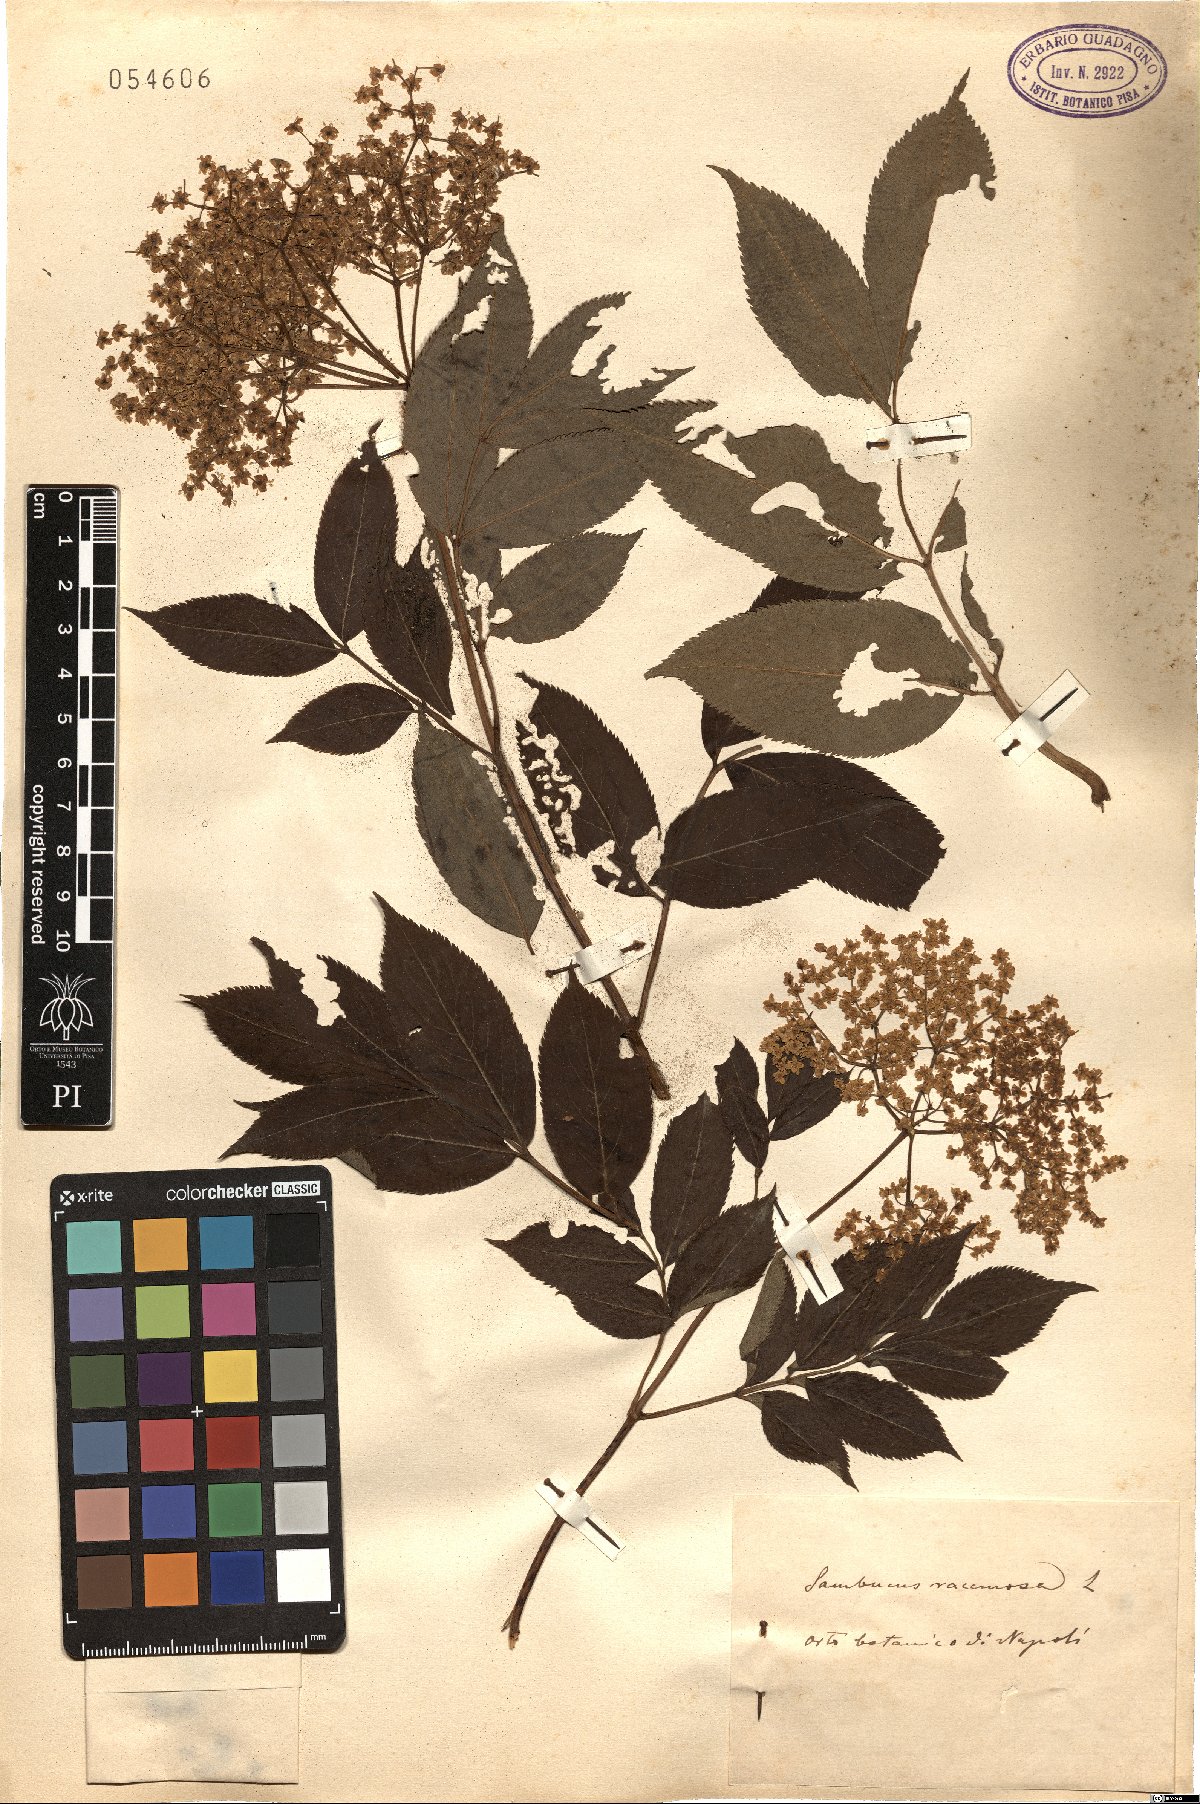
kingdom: Plantae
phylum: Tracheophyta
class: Magnoliopsida
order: Dipsacales
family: Viburnaceae
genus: Sambucus
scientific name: Sambucus racemosa
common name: Red-berried elder
